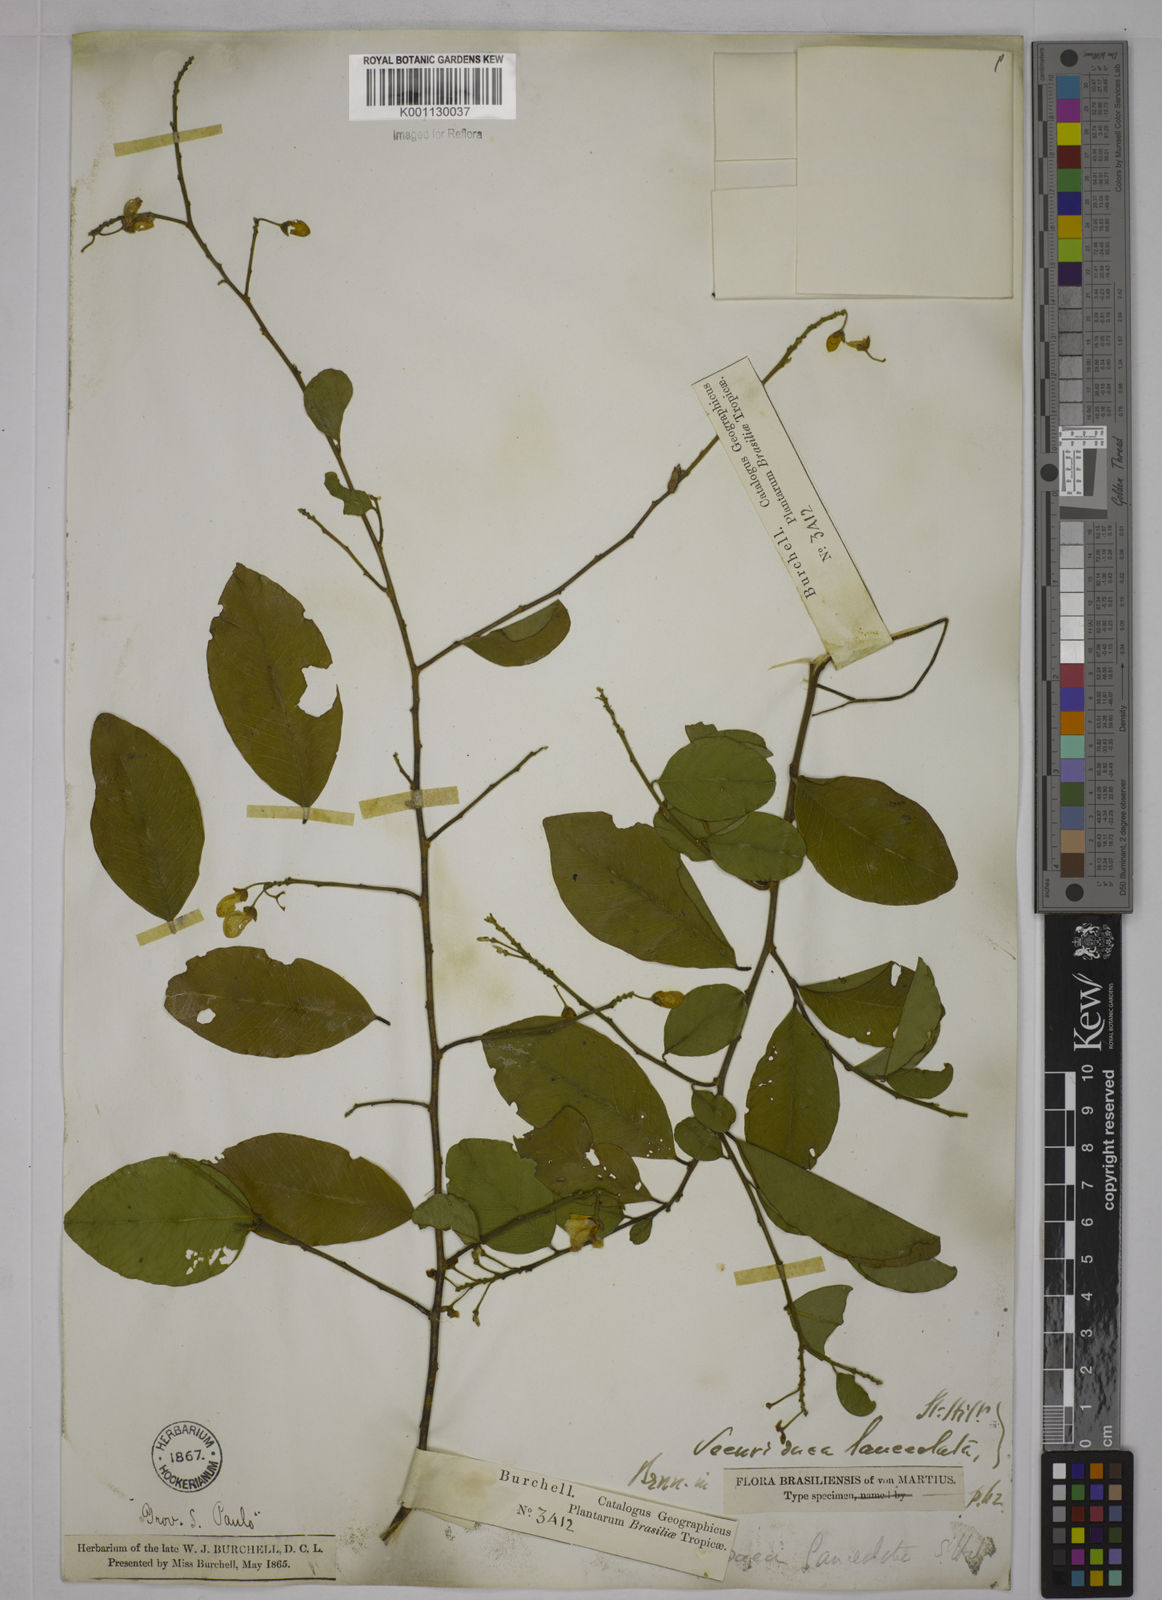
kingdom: Plantae
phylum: Tracheophyta
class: Magnoliopsida
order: Fabales
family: Polygalaceae
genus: Securidaca
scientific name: Securidaca lanceolata
